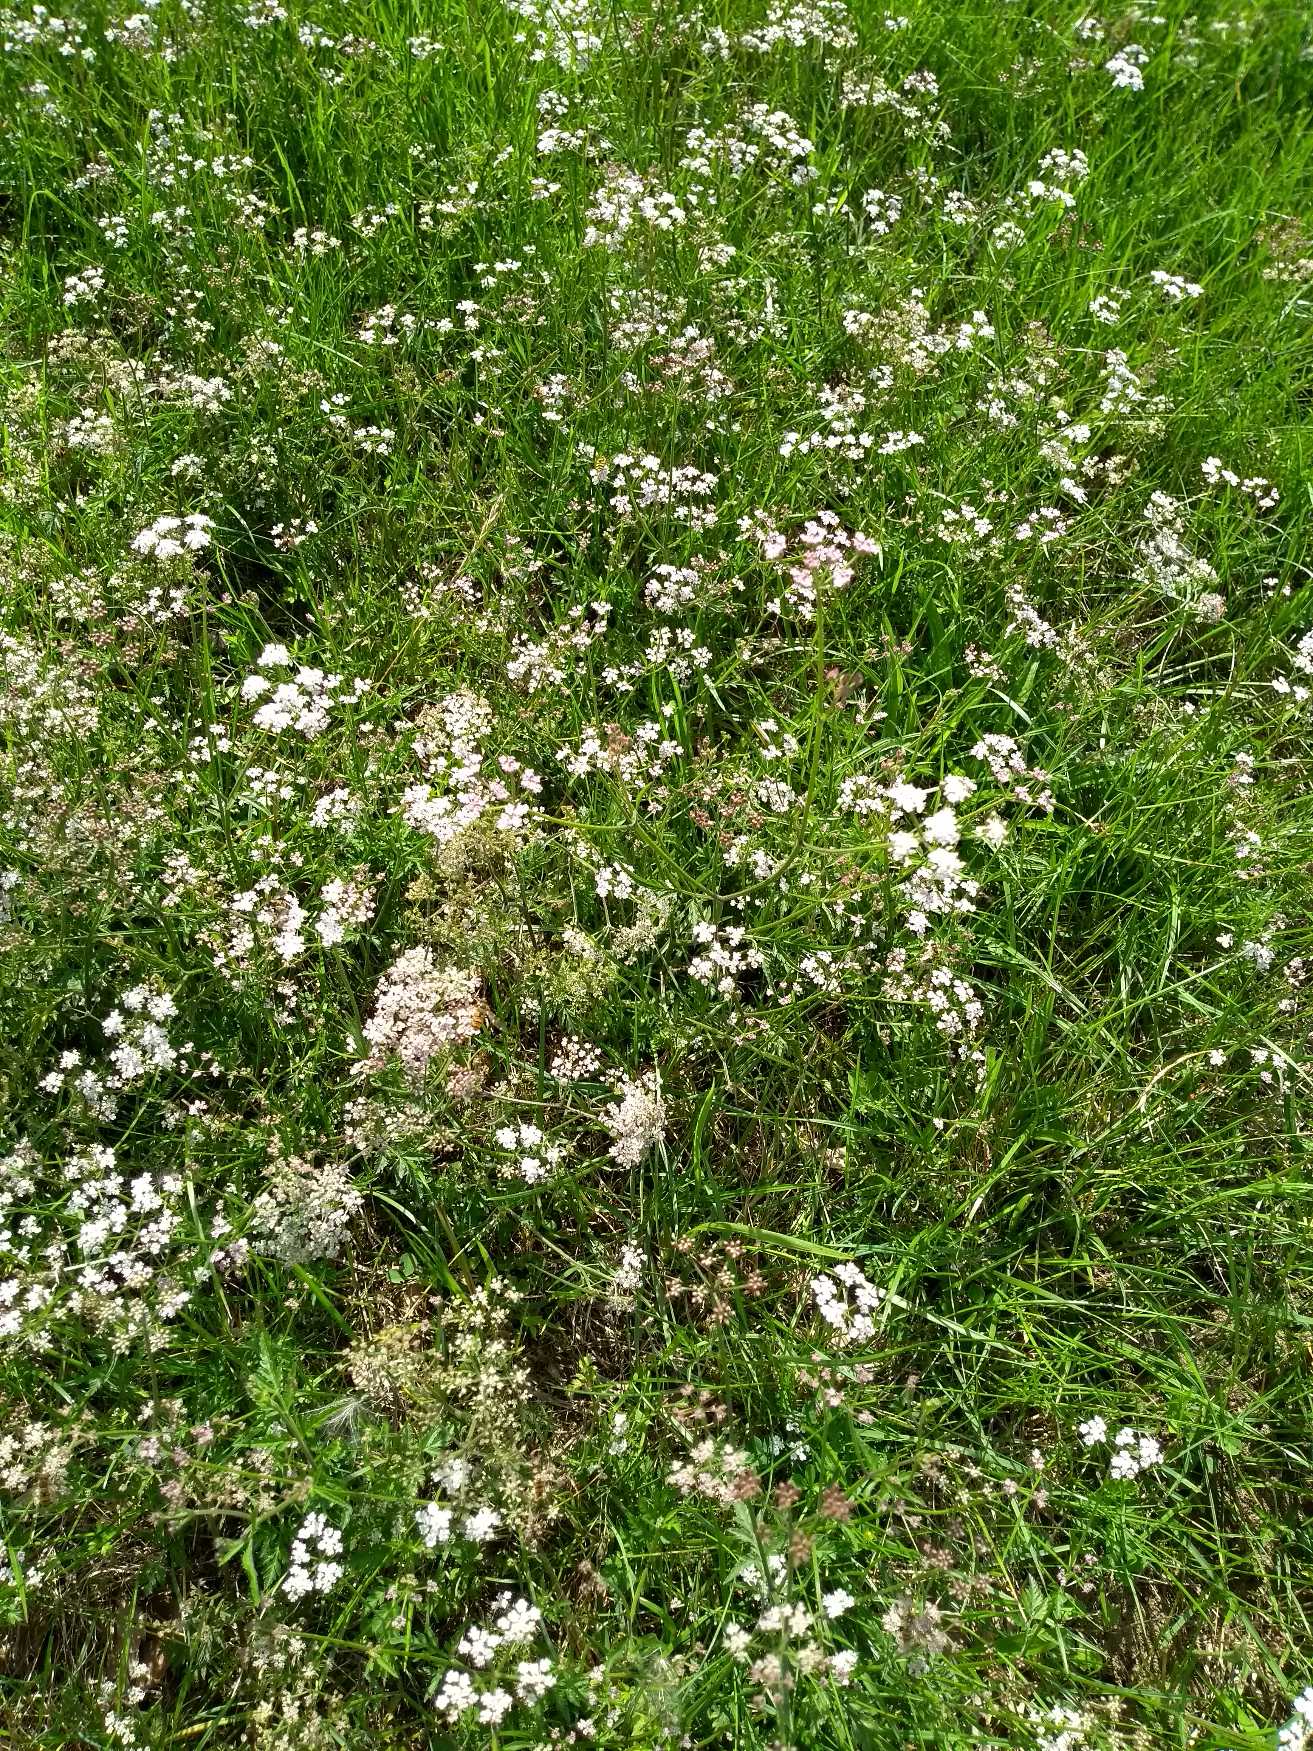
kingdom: Plantae
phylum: Tracheophyta
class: Magnoliopsida
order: Apiales
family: Apiaceae
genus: Torilis
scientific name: Torilis japonica
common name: Hvas randfrø
